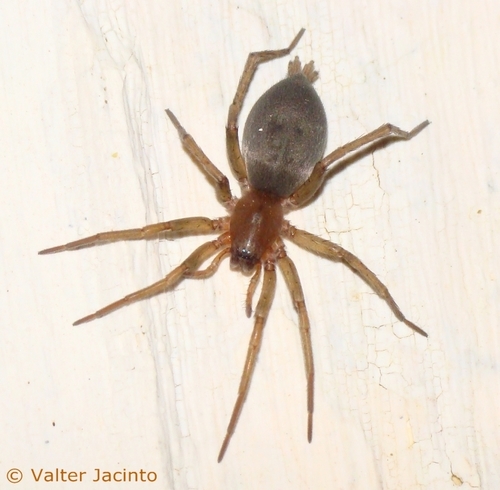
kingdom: Animalia
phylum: Arthropoda
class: Arachnida
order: Araneae
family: Gnaphosidae
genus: Drassodes
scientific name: Drassodes lapidosus
